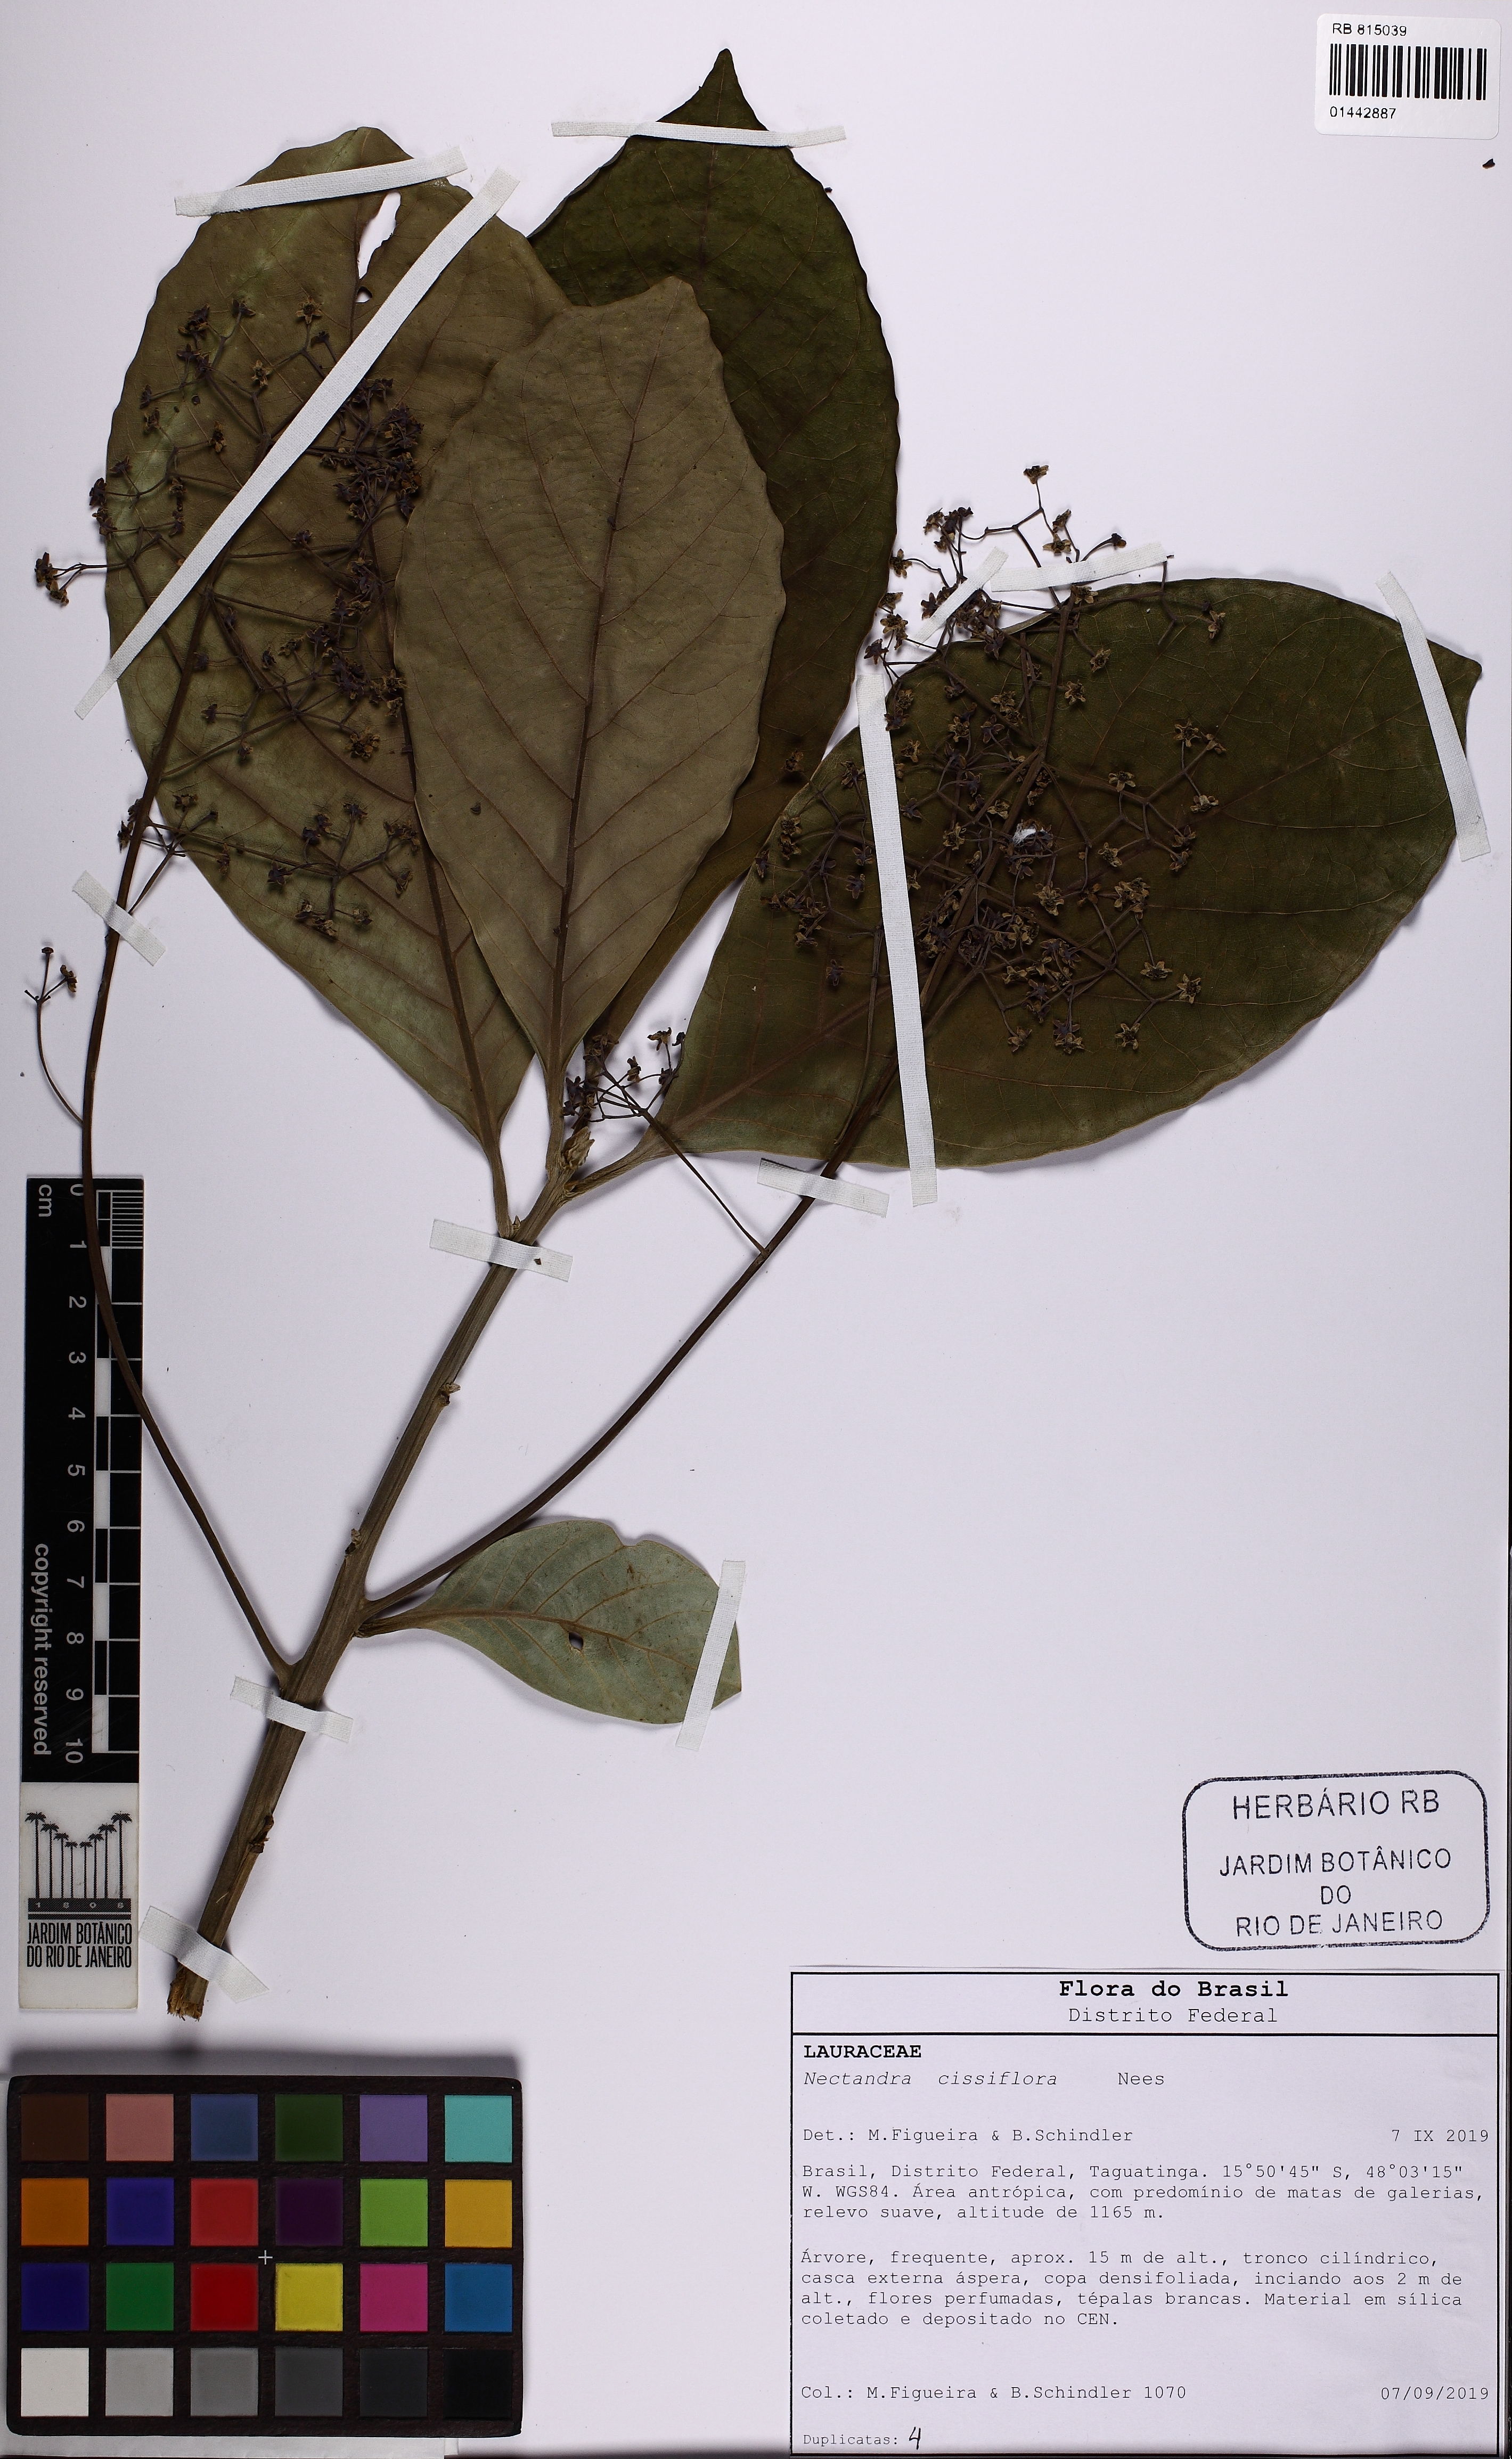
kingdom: Plantae
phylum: Tracheophyta
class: Magnoliopsida
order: Laurales
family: Lauraceae
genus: Nectandra
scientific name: Nectandra cissiflora
